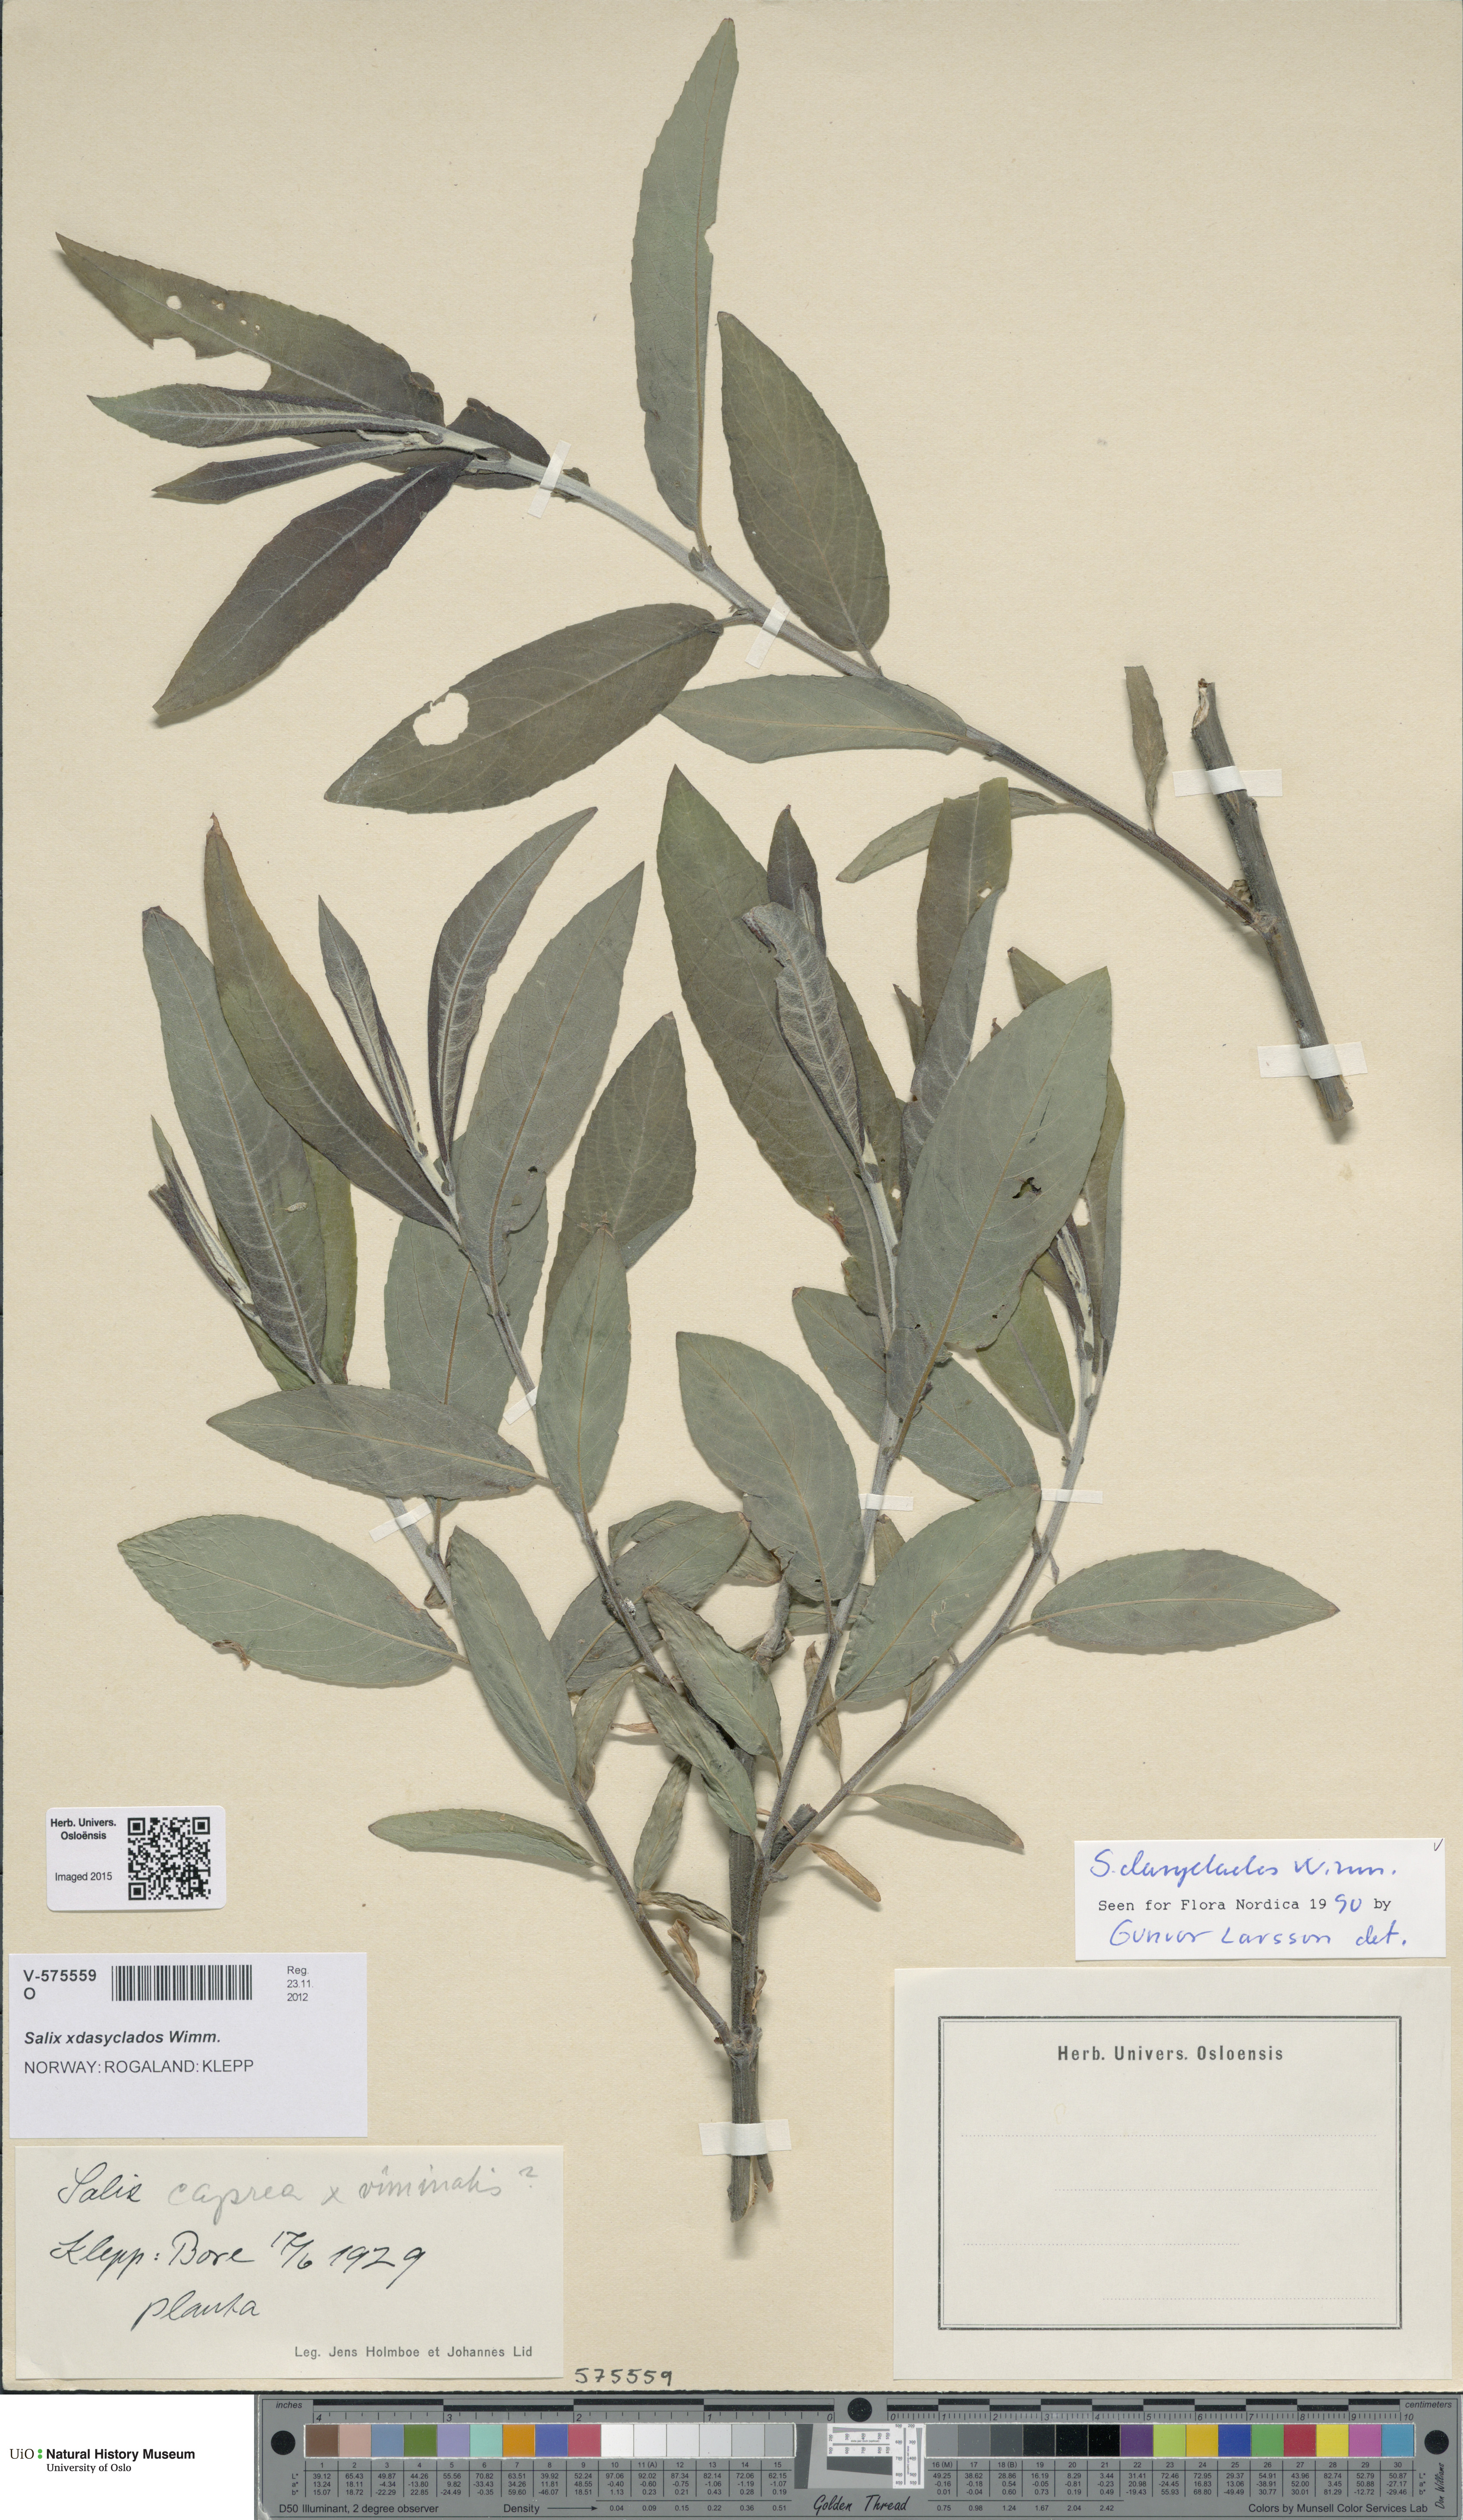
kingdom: Plantae
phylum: Tracheophyta
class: Magnoliopsida
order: Malpighiales
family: Salicaceae
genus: Salix
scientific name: Salix gmelinii
